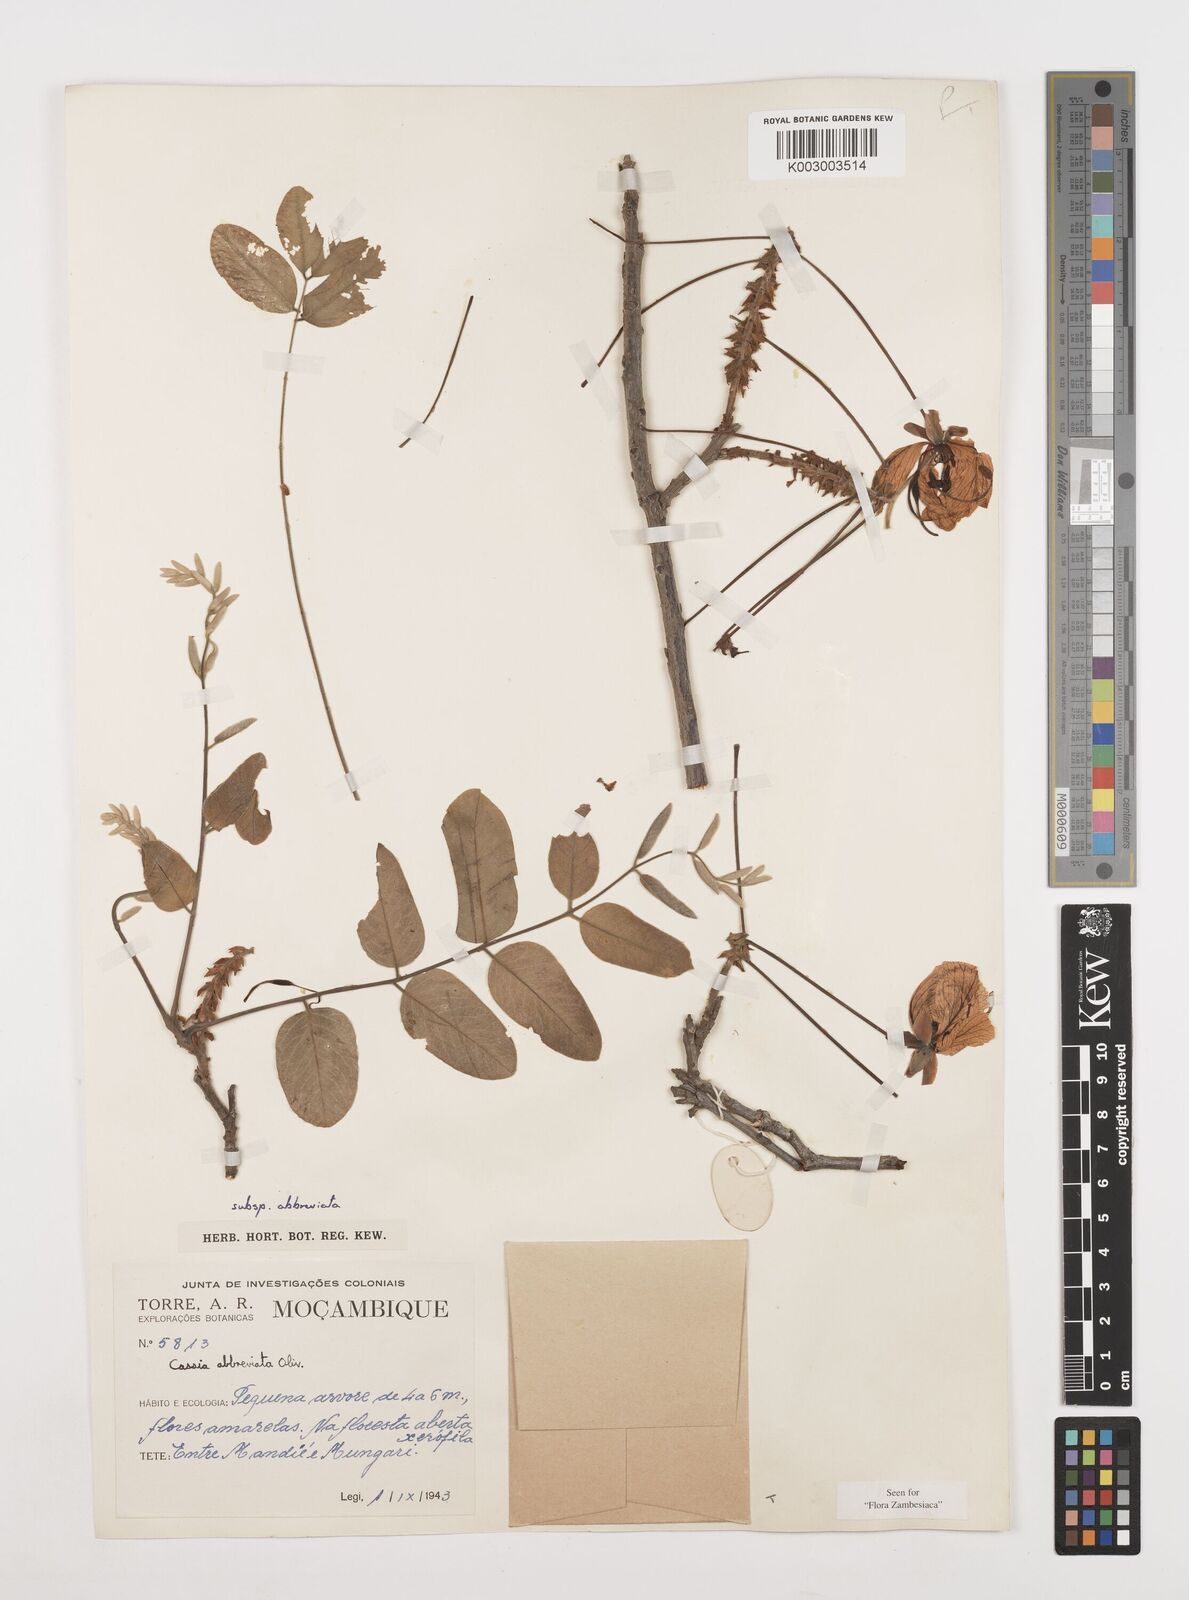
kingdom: Plantae
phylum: Tracheophyta
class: Magnoliopsida
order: Fabales
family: Fabaceae
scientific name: Fabaceae
